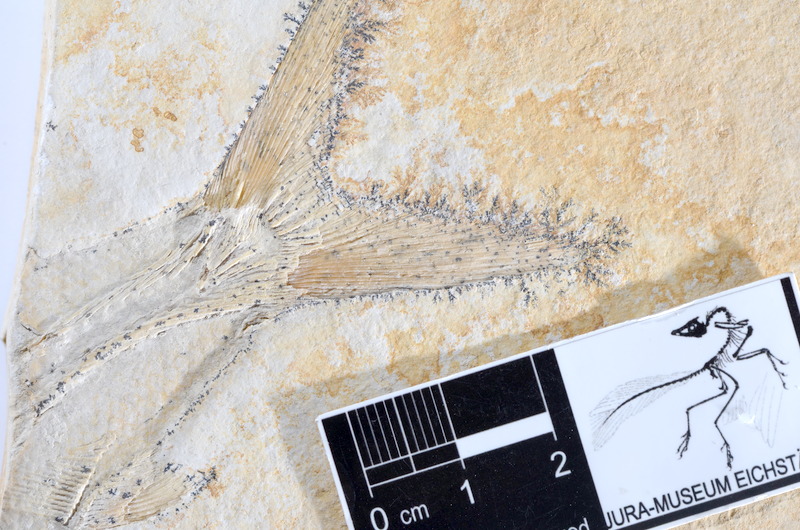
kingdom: Animalia
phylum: Chordata
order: Amiiformes
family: Caturidae
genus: Caturus
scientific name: Caturus furcatus
